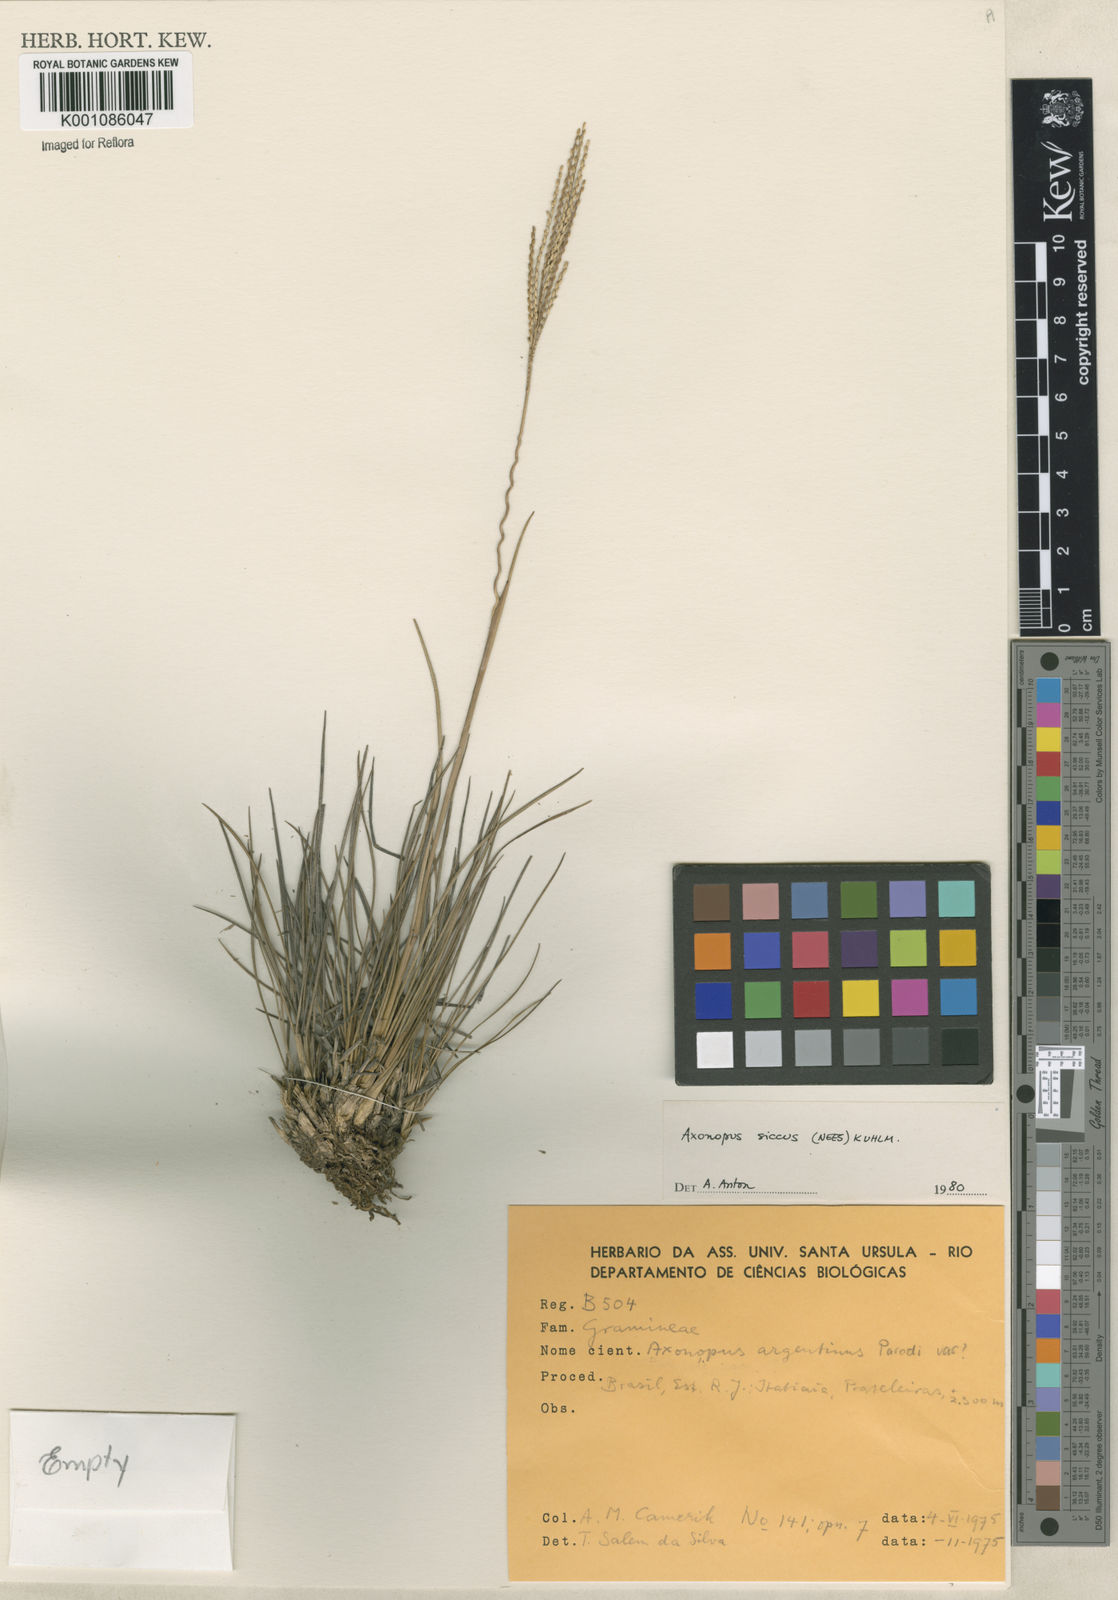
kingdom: Plantae
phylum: Tracheophyta
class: Liliopsida
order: Poales
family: Poaceae
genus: Axonopus
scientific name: Axonopus siccus
